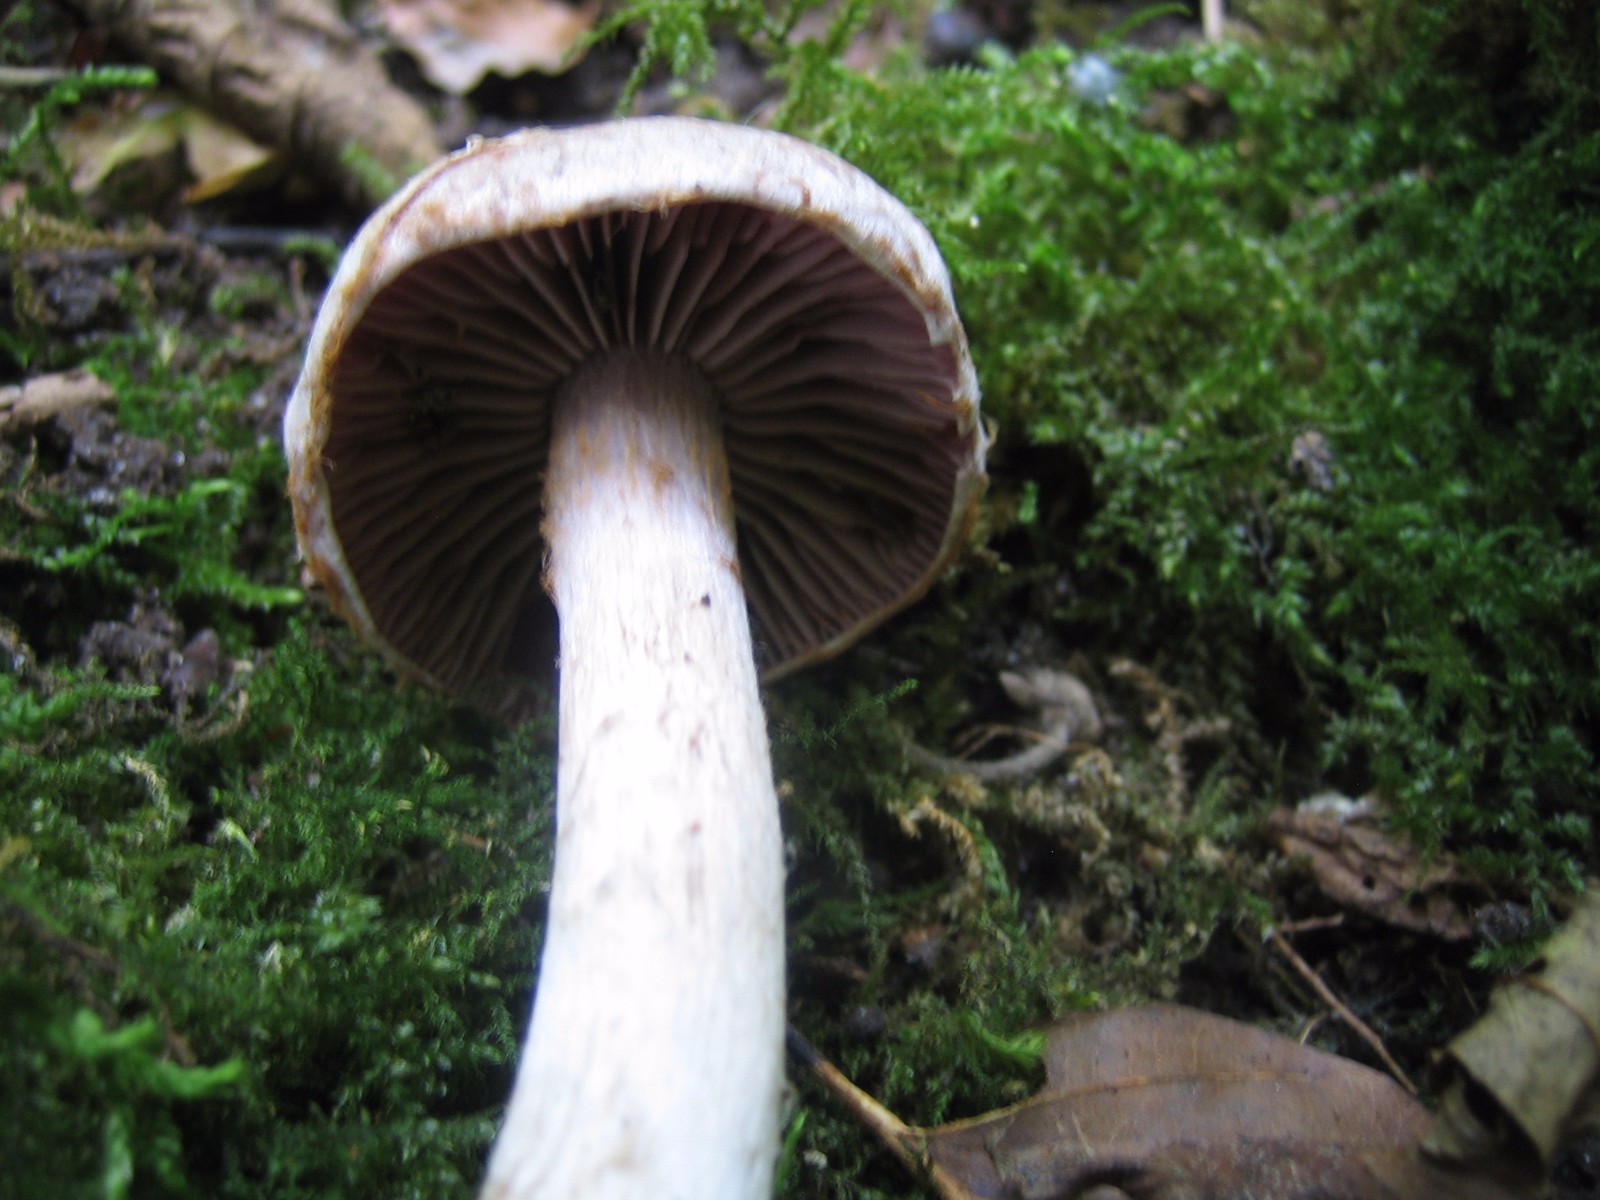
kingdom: Fungi
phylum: Basidiomycota
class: Agaricomycetes
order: Agaricales
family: Cortinariaceae
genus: Cortinarius
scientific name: Cortinarius lucorum
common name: aspe-slørhat
